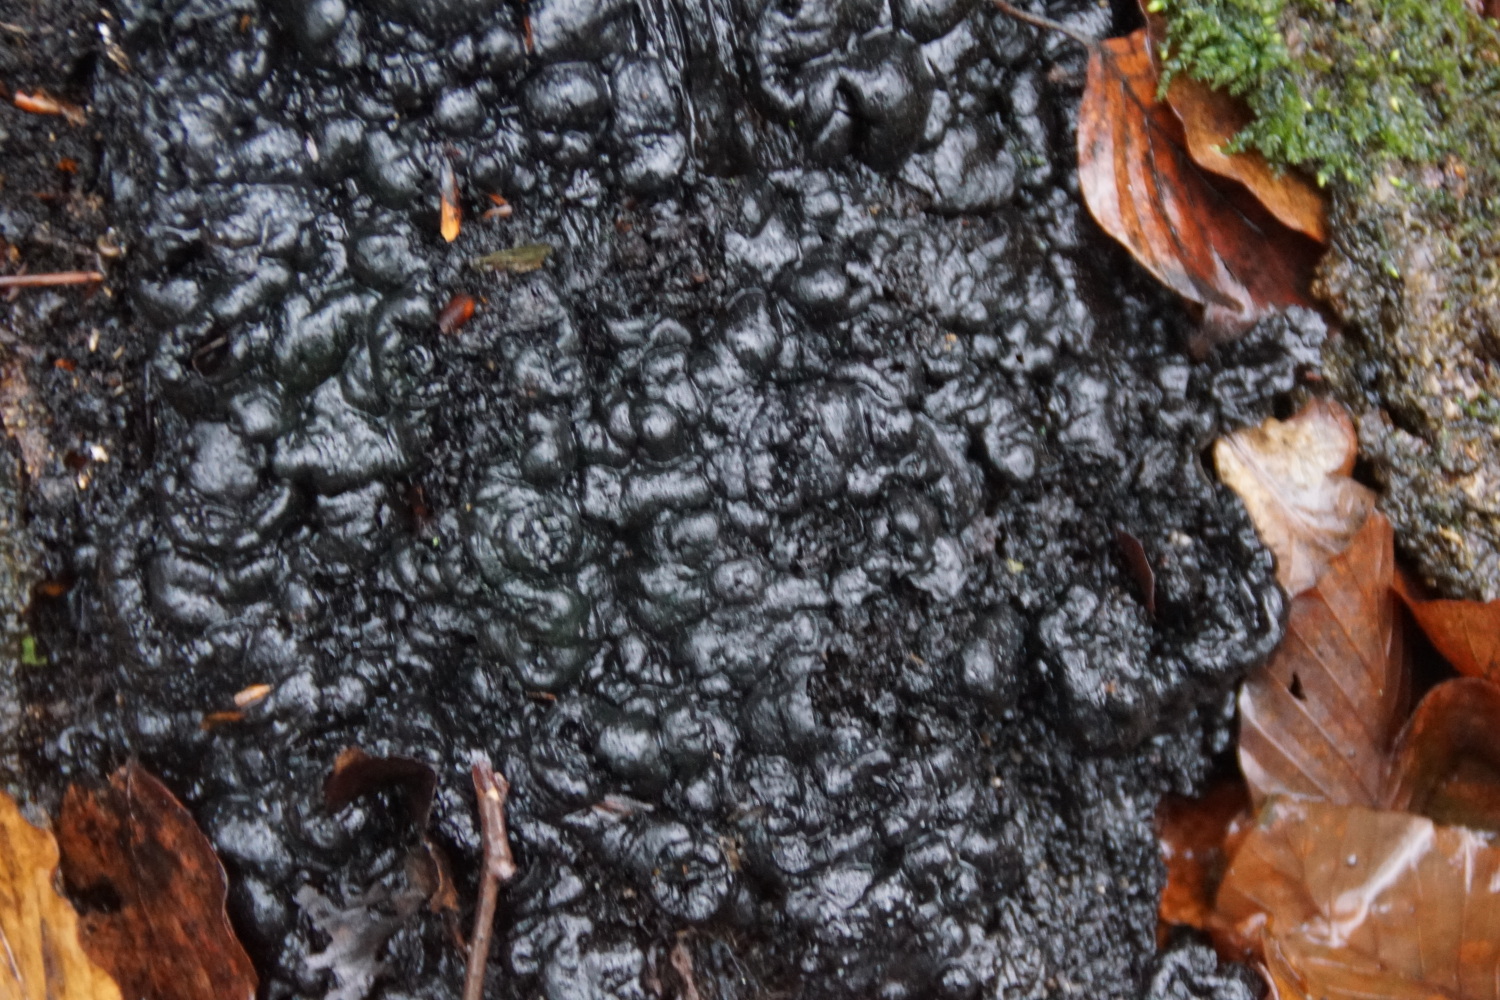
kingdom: Fungi
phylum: Ascomycota
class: Sordariomycetes
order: Xylariales
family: Xylariaceae
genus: Kretzschmaria
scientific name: Kretzschmaria deusta
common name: stor kulsvamp
